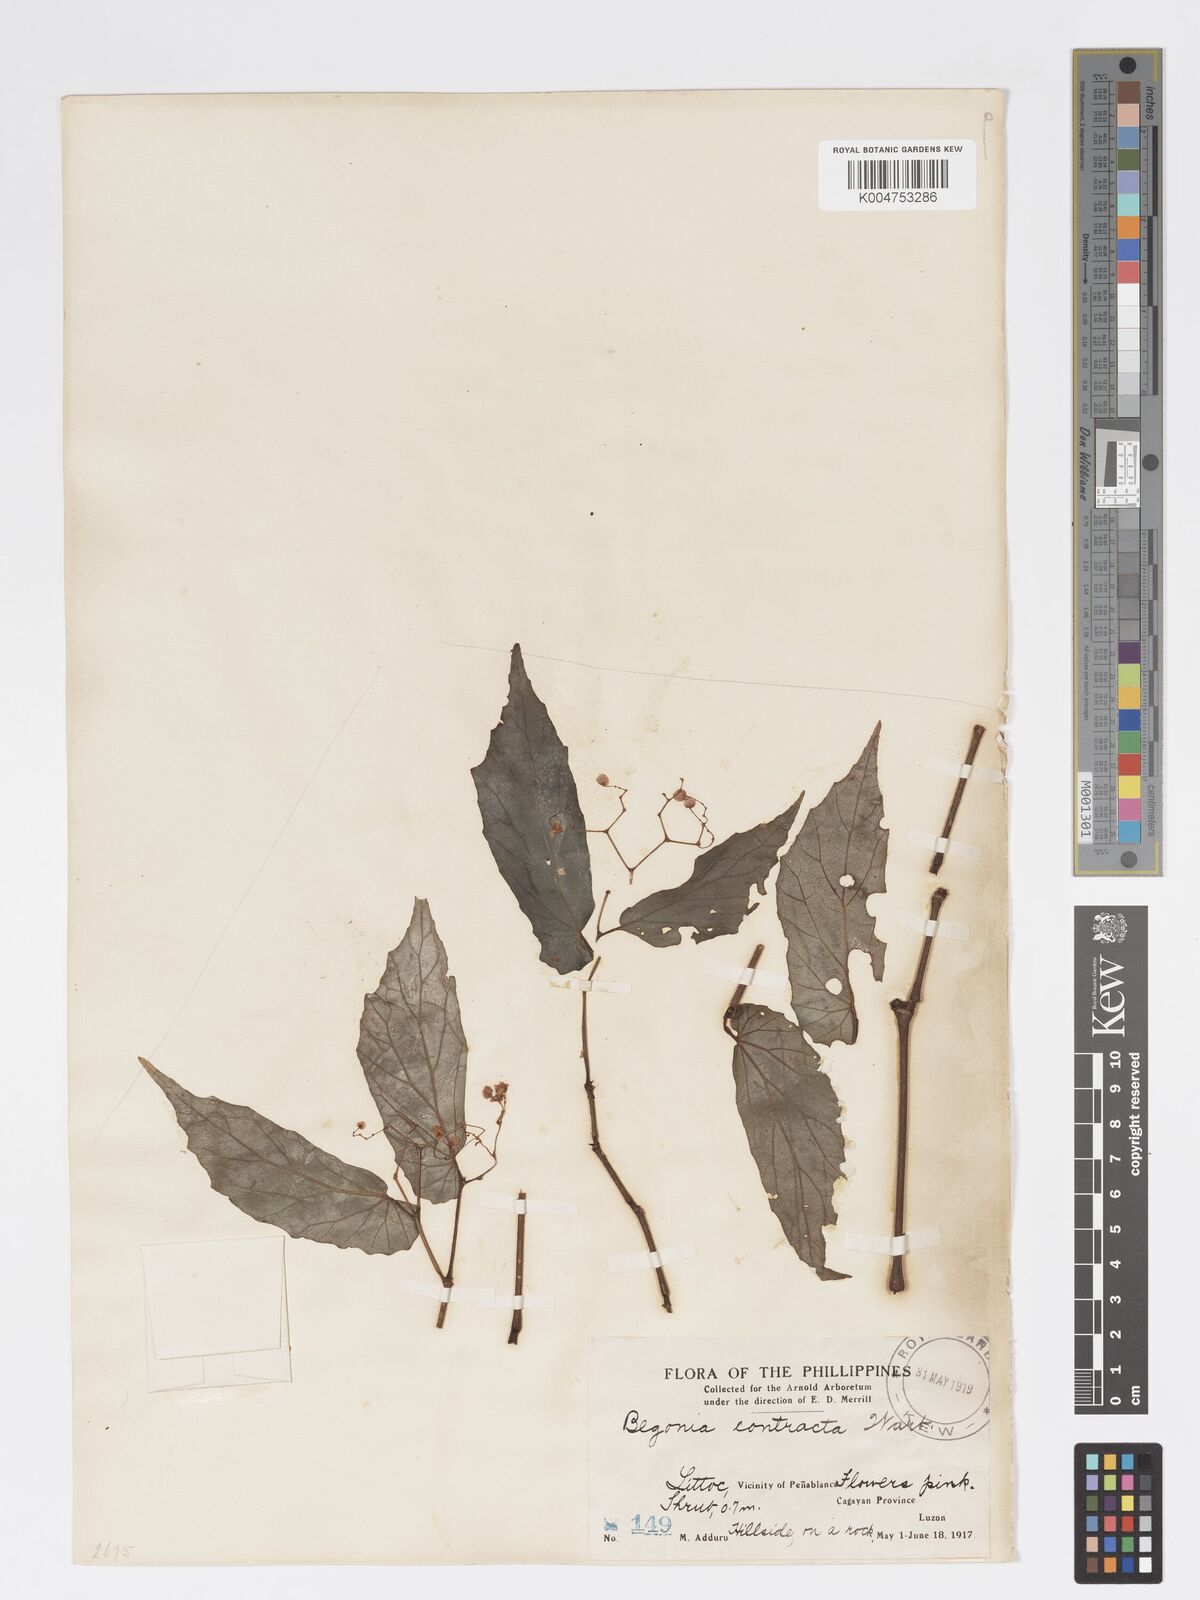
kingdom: Plantae
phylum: Tracheophyta
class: Magnoliopsida
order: Cucurbitales
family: Begoniaceae
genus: Begonia
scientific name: Begonia contracta
